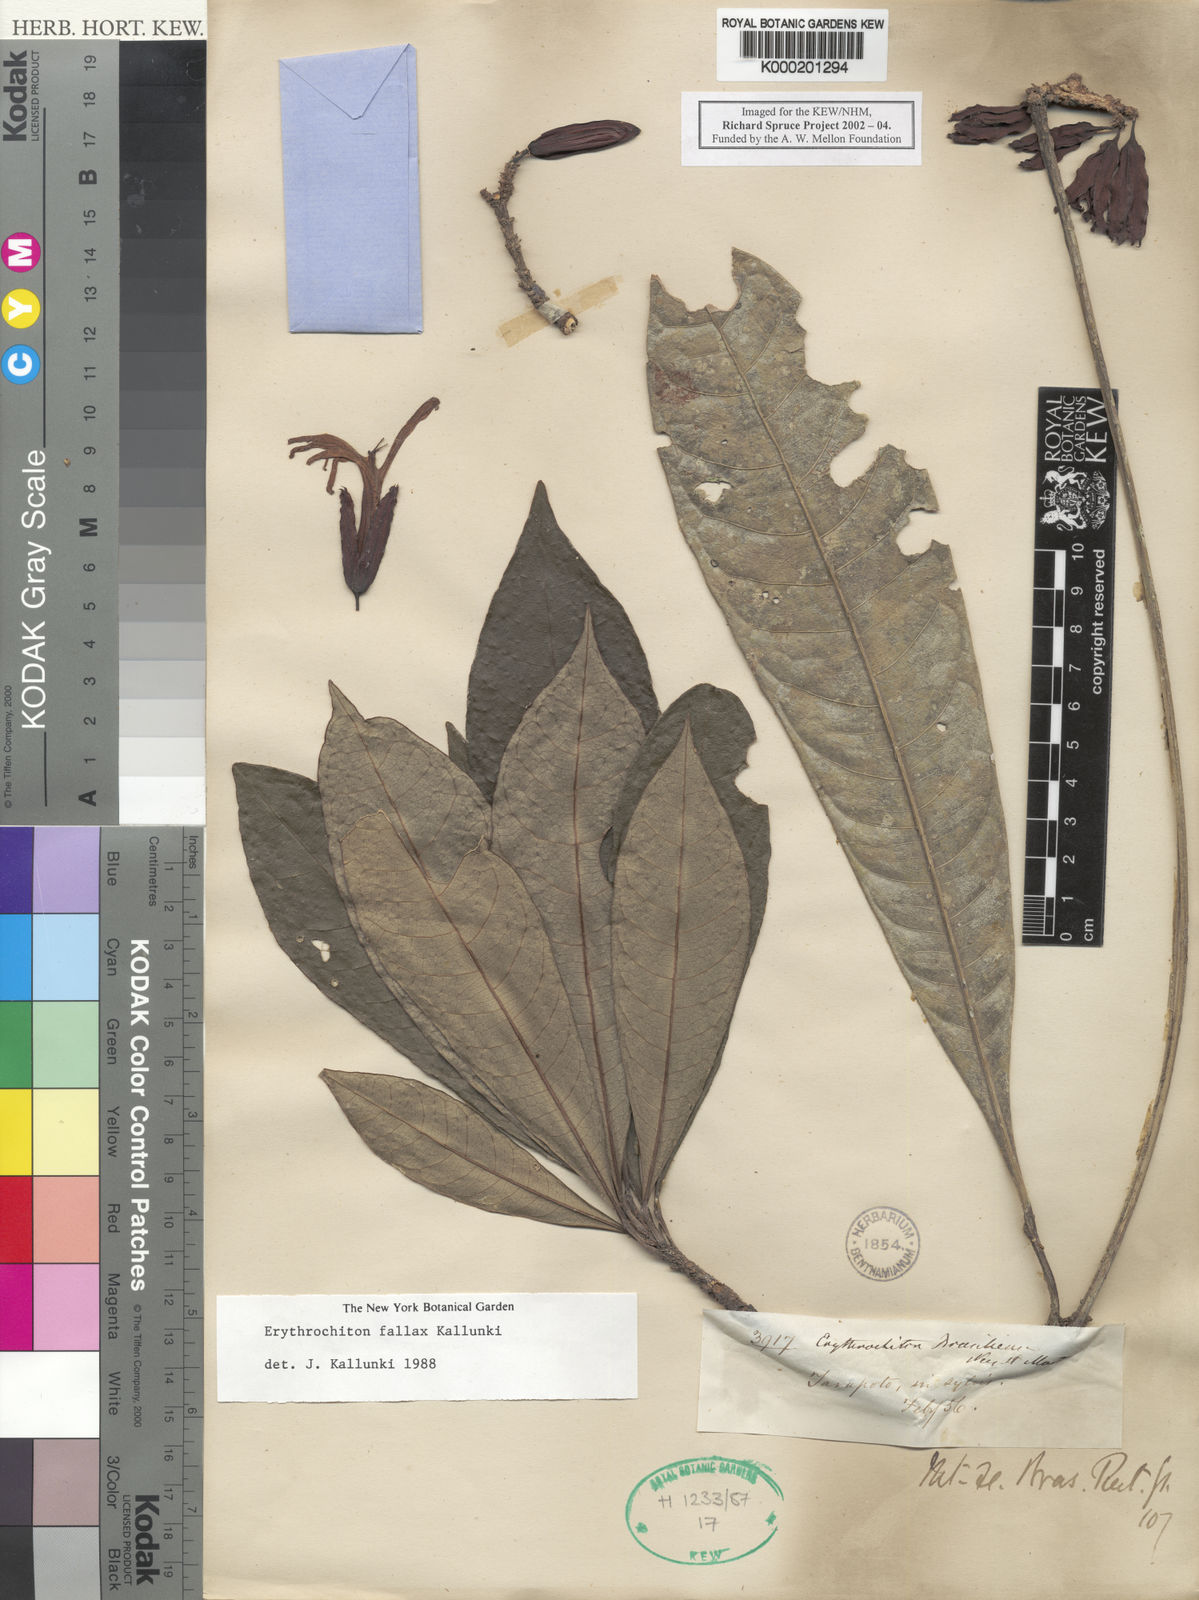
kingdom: Plantae
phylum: Tracheophyta
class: Magnoliopsida
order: Sapindales
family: Rutaceae
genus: Erythrochiton
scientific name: Erythrochiton fallax
